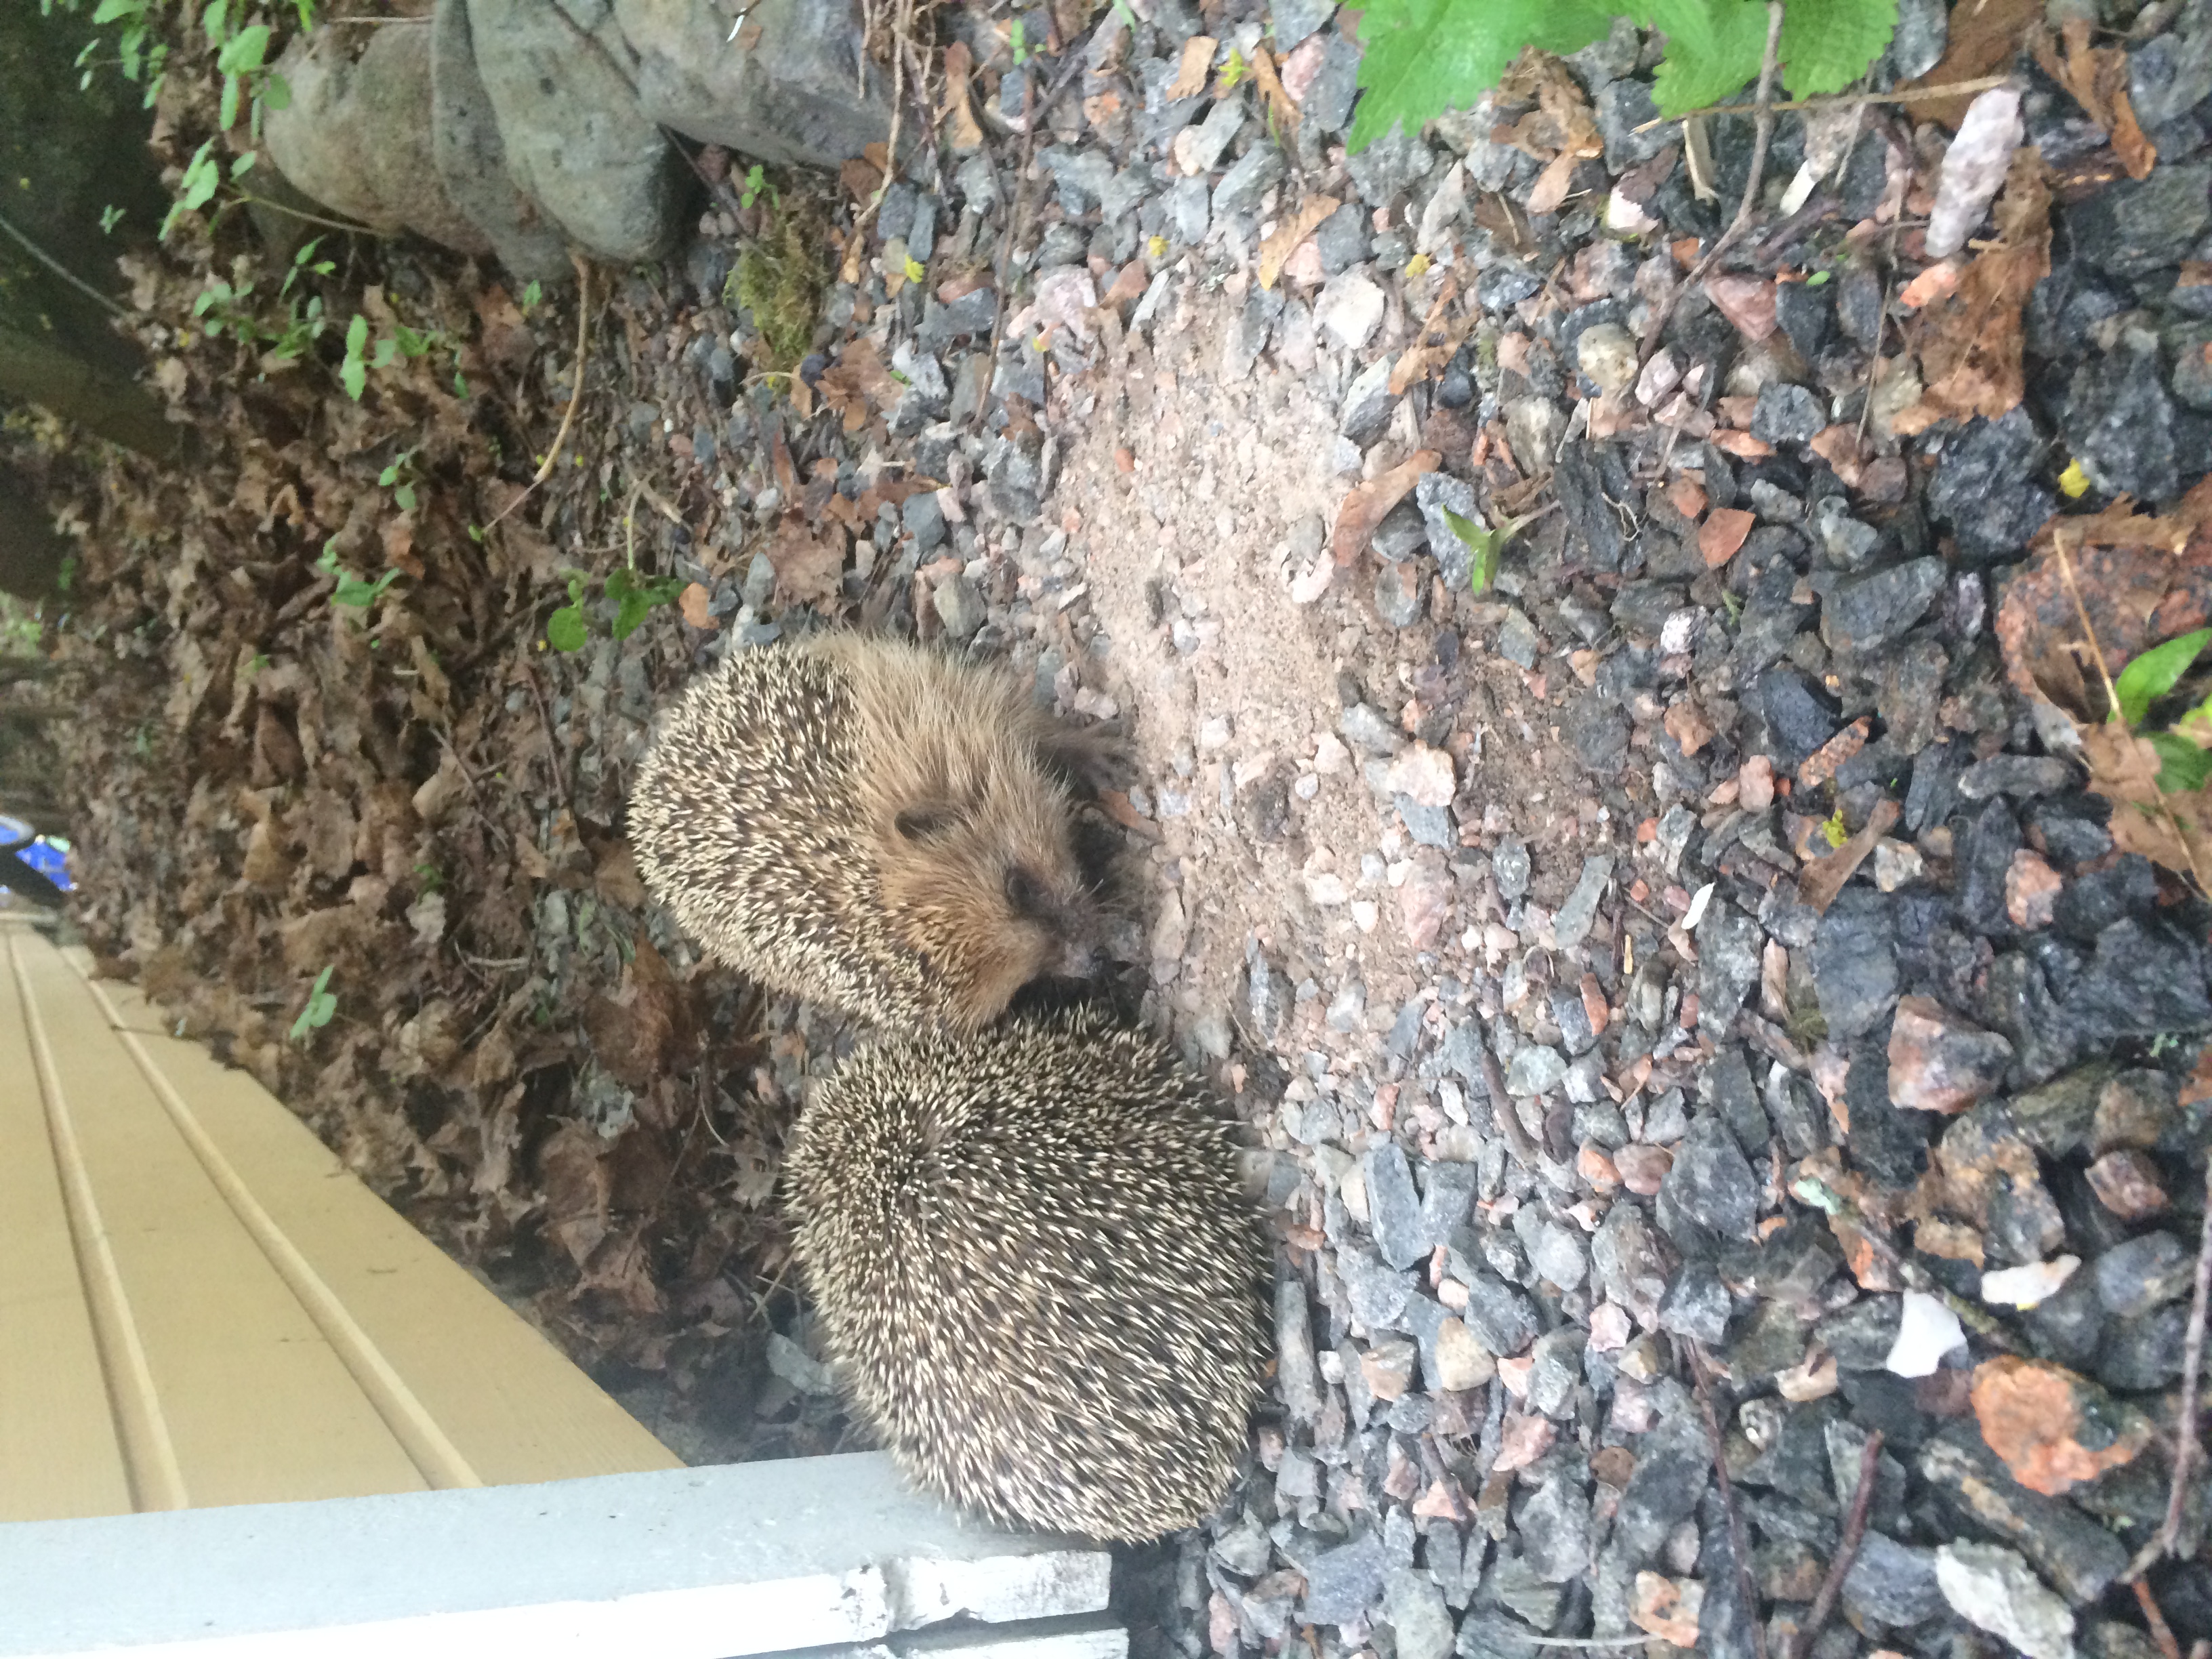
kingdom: Animalia
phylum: Chordata
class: Mammalia
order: Erinaceomorpha
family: Erinaceidae
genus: Erinaceus
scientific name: Erinaceus europaeus
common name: West european hedgehog
